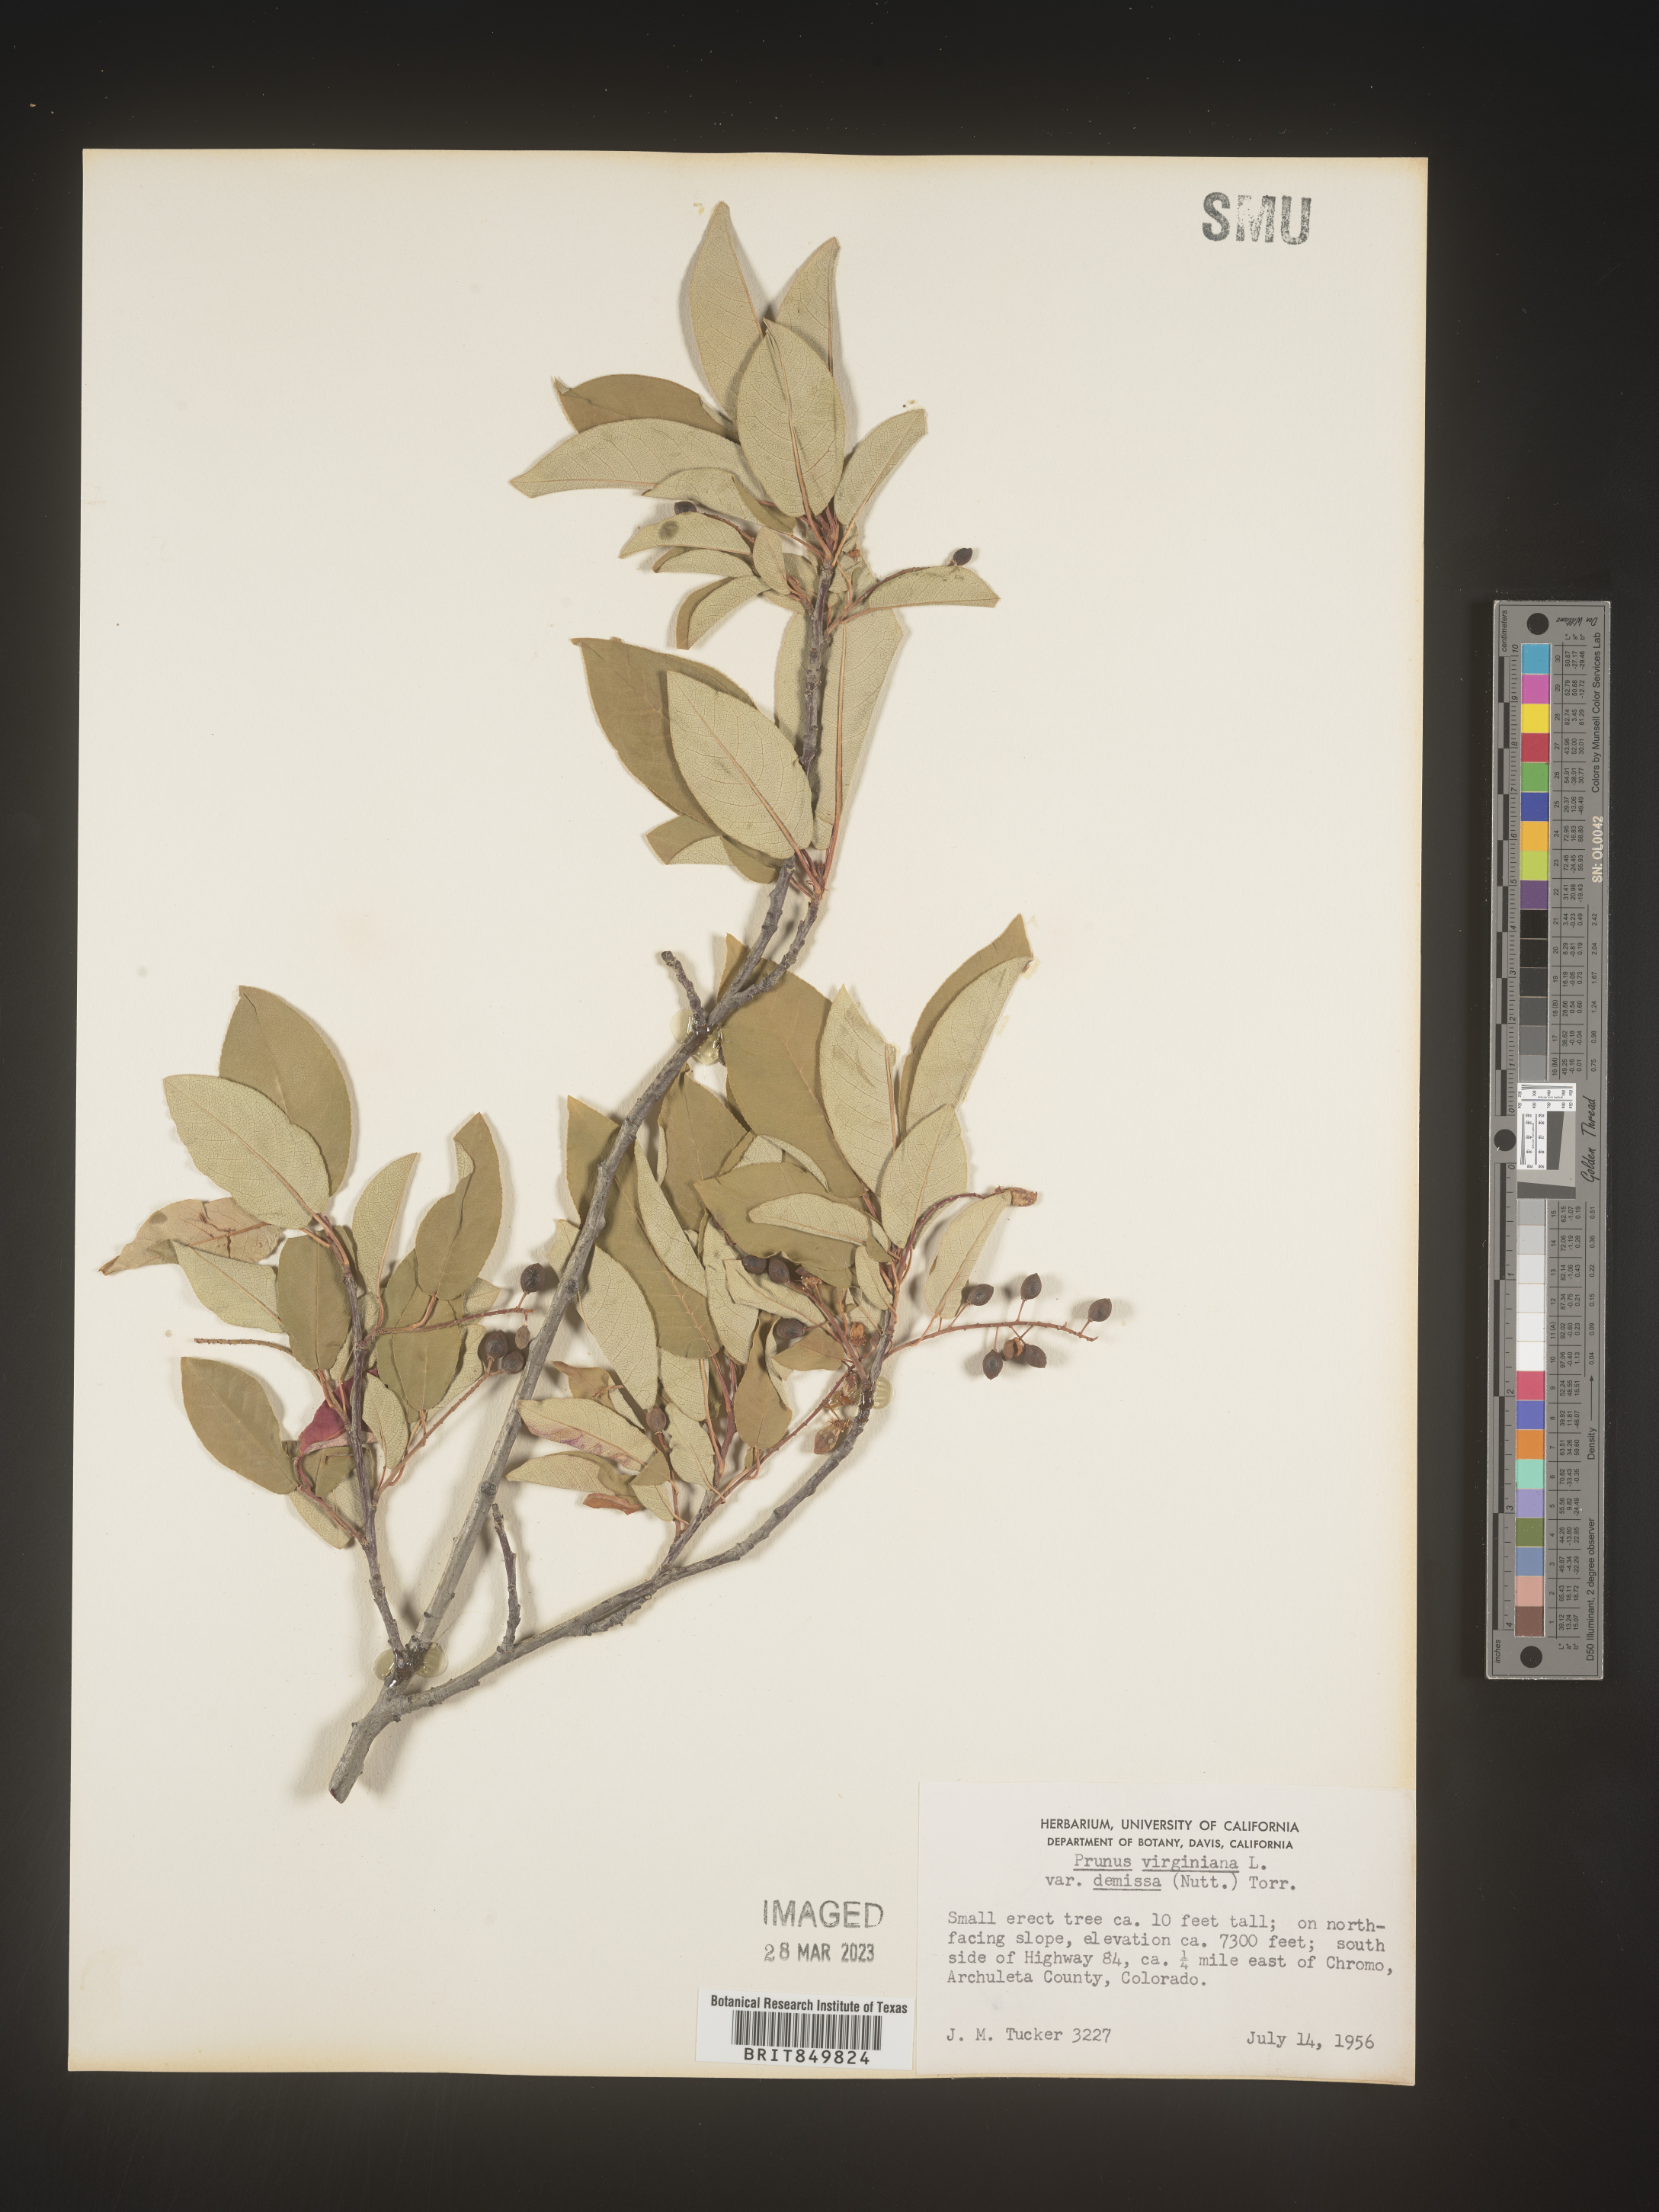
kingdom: Plantae
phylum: Tracheophyta
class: Magnoliopsida
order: Rosales
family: Rosaceae
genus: Prunus
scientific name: Prunus virginiana
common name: Chokecherry
